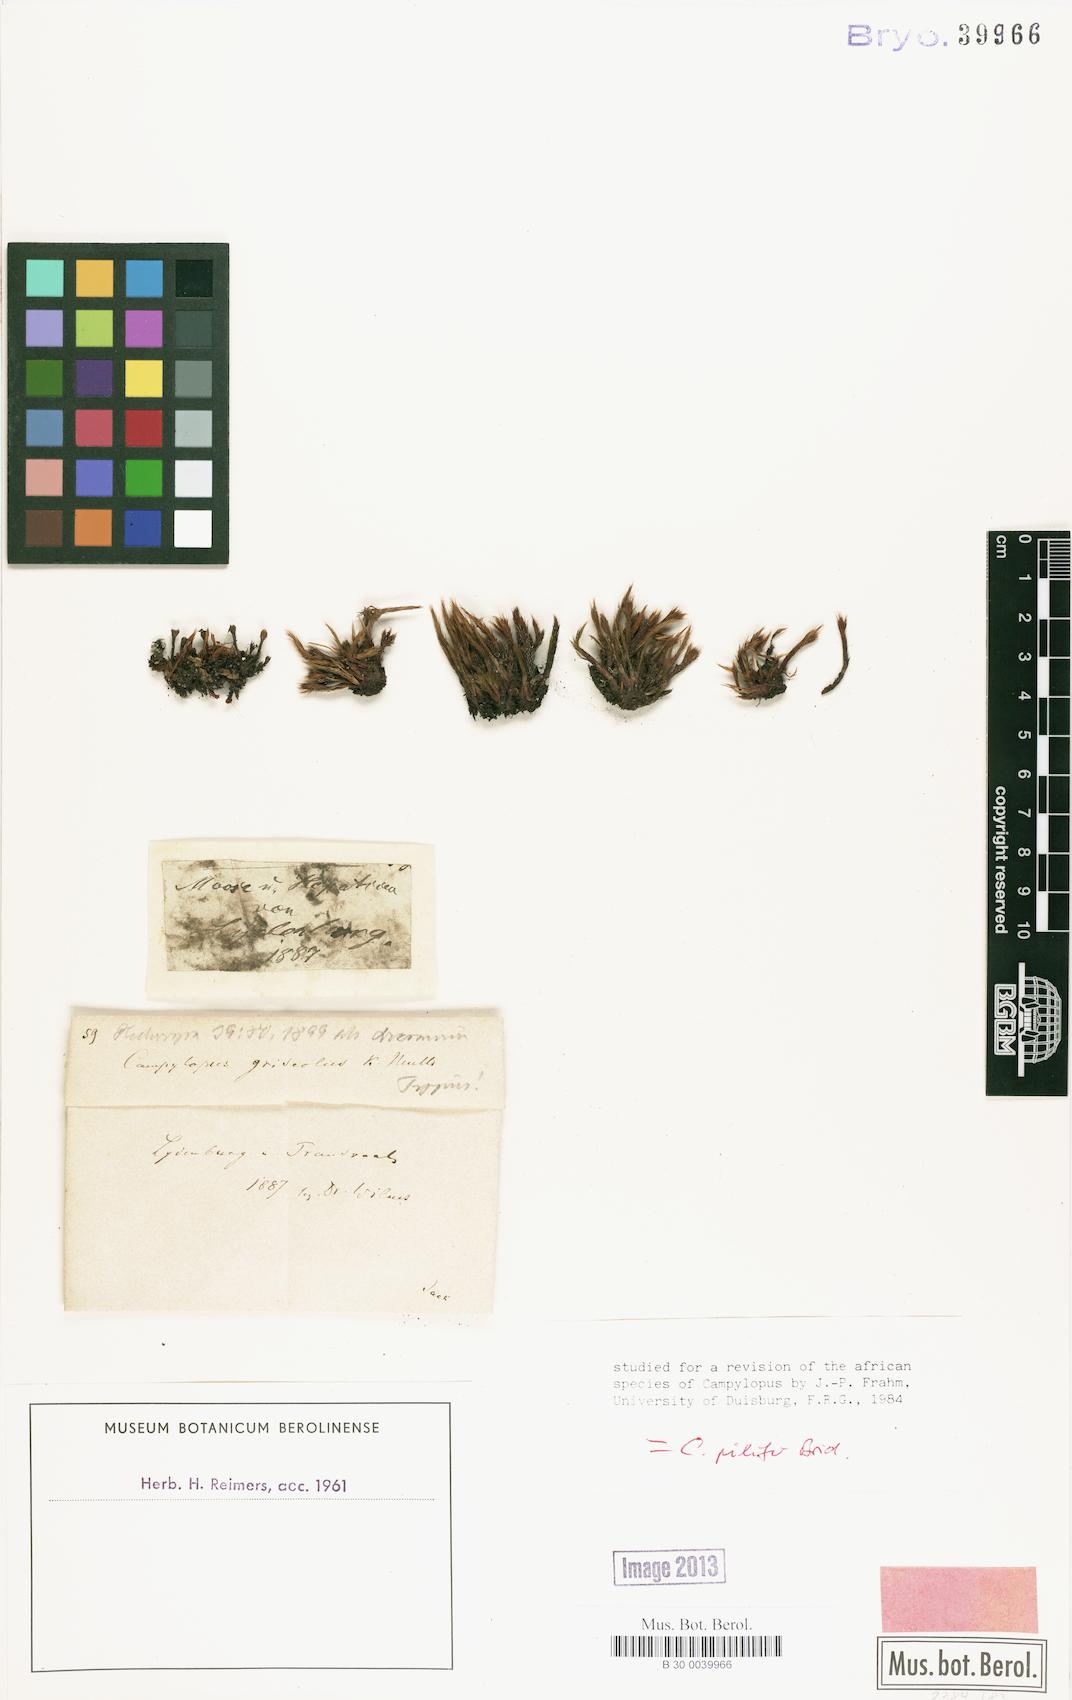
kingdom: Plantae
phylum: Bryophyta
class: Bryopsida
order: Dicranales
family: Leucobryaceae
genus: Campylopus
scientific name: Campylopus pilifer
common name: Campylopus moss
